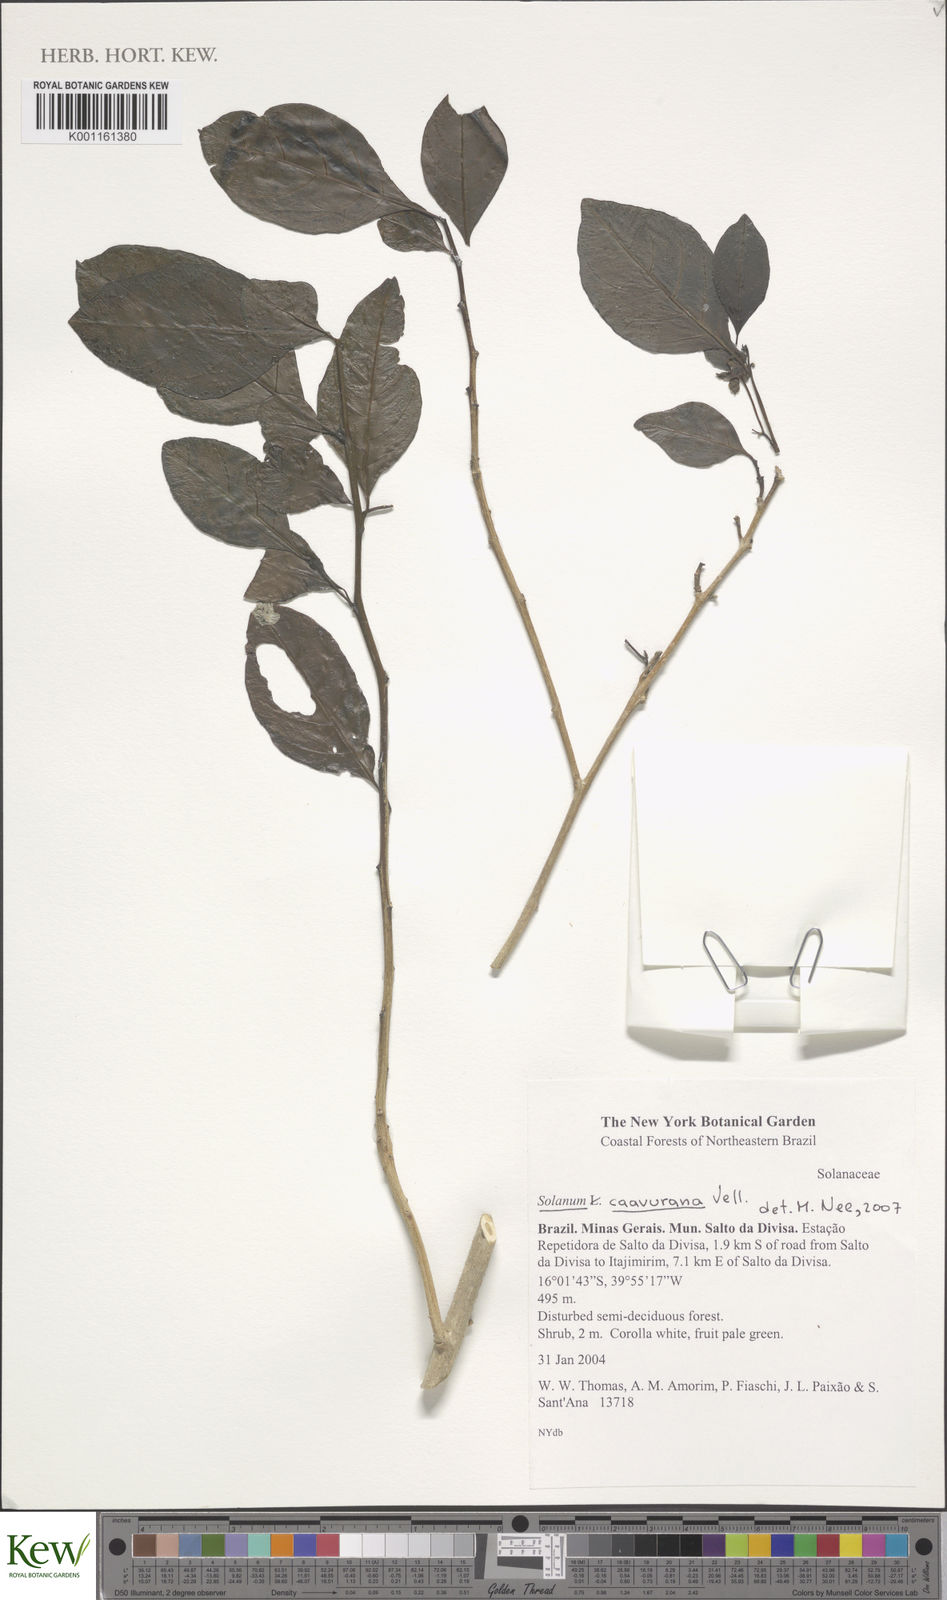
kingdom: Plantae
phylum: Tracheophyta
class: Magnoliopsida
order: Solanales
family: Solanaceae
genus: Solanum
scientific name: Solanum caavurana
